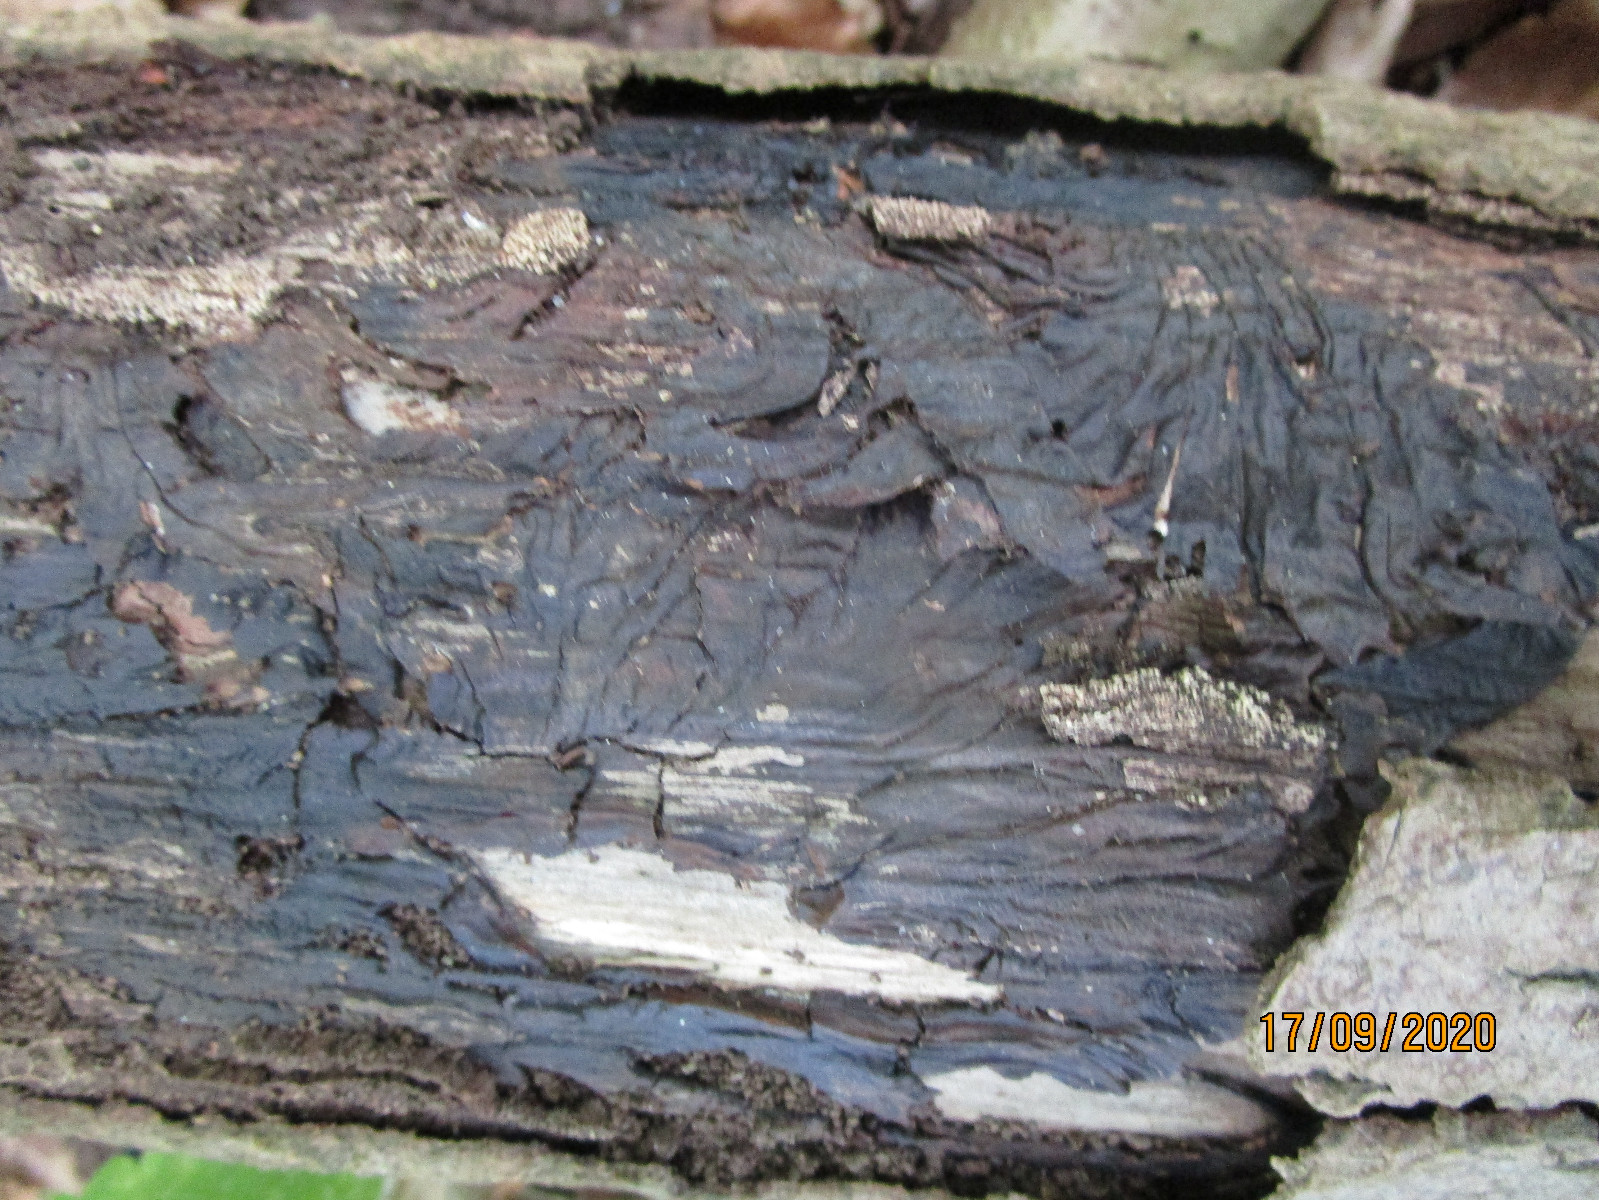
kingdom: Fungi
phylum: Basidiomycota
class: Agaricomycetes
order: Agaricales
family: Physalacriaceae
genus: Armillaria
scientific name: Armillaria
